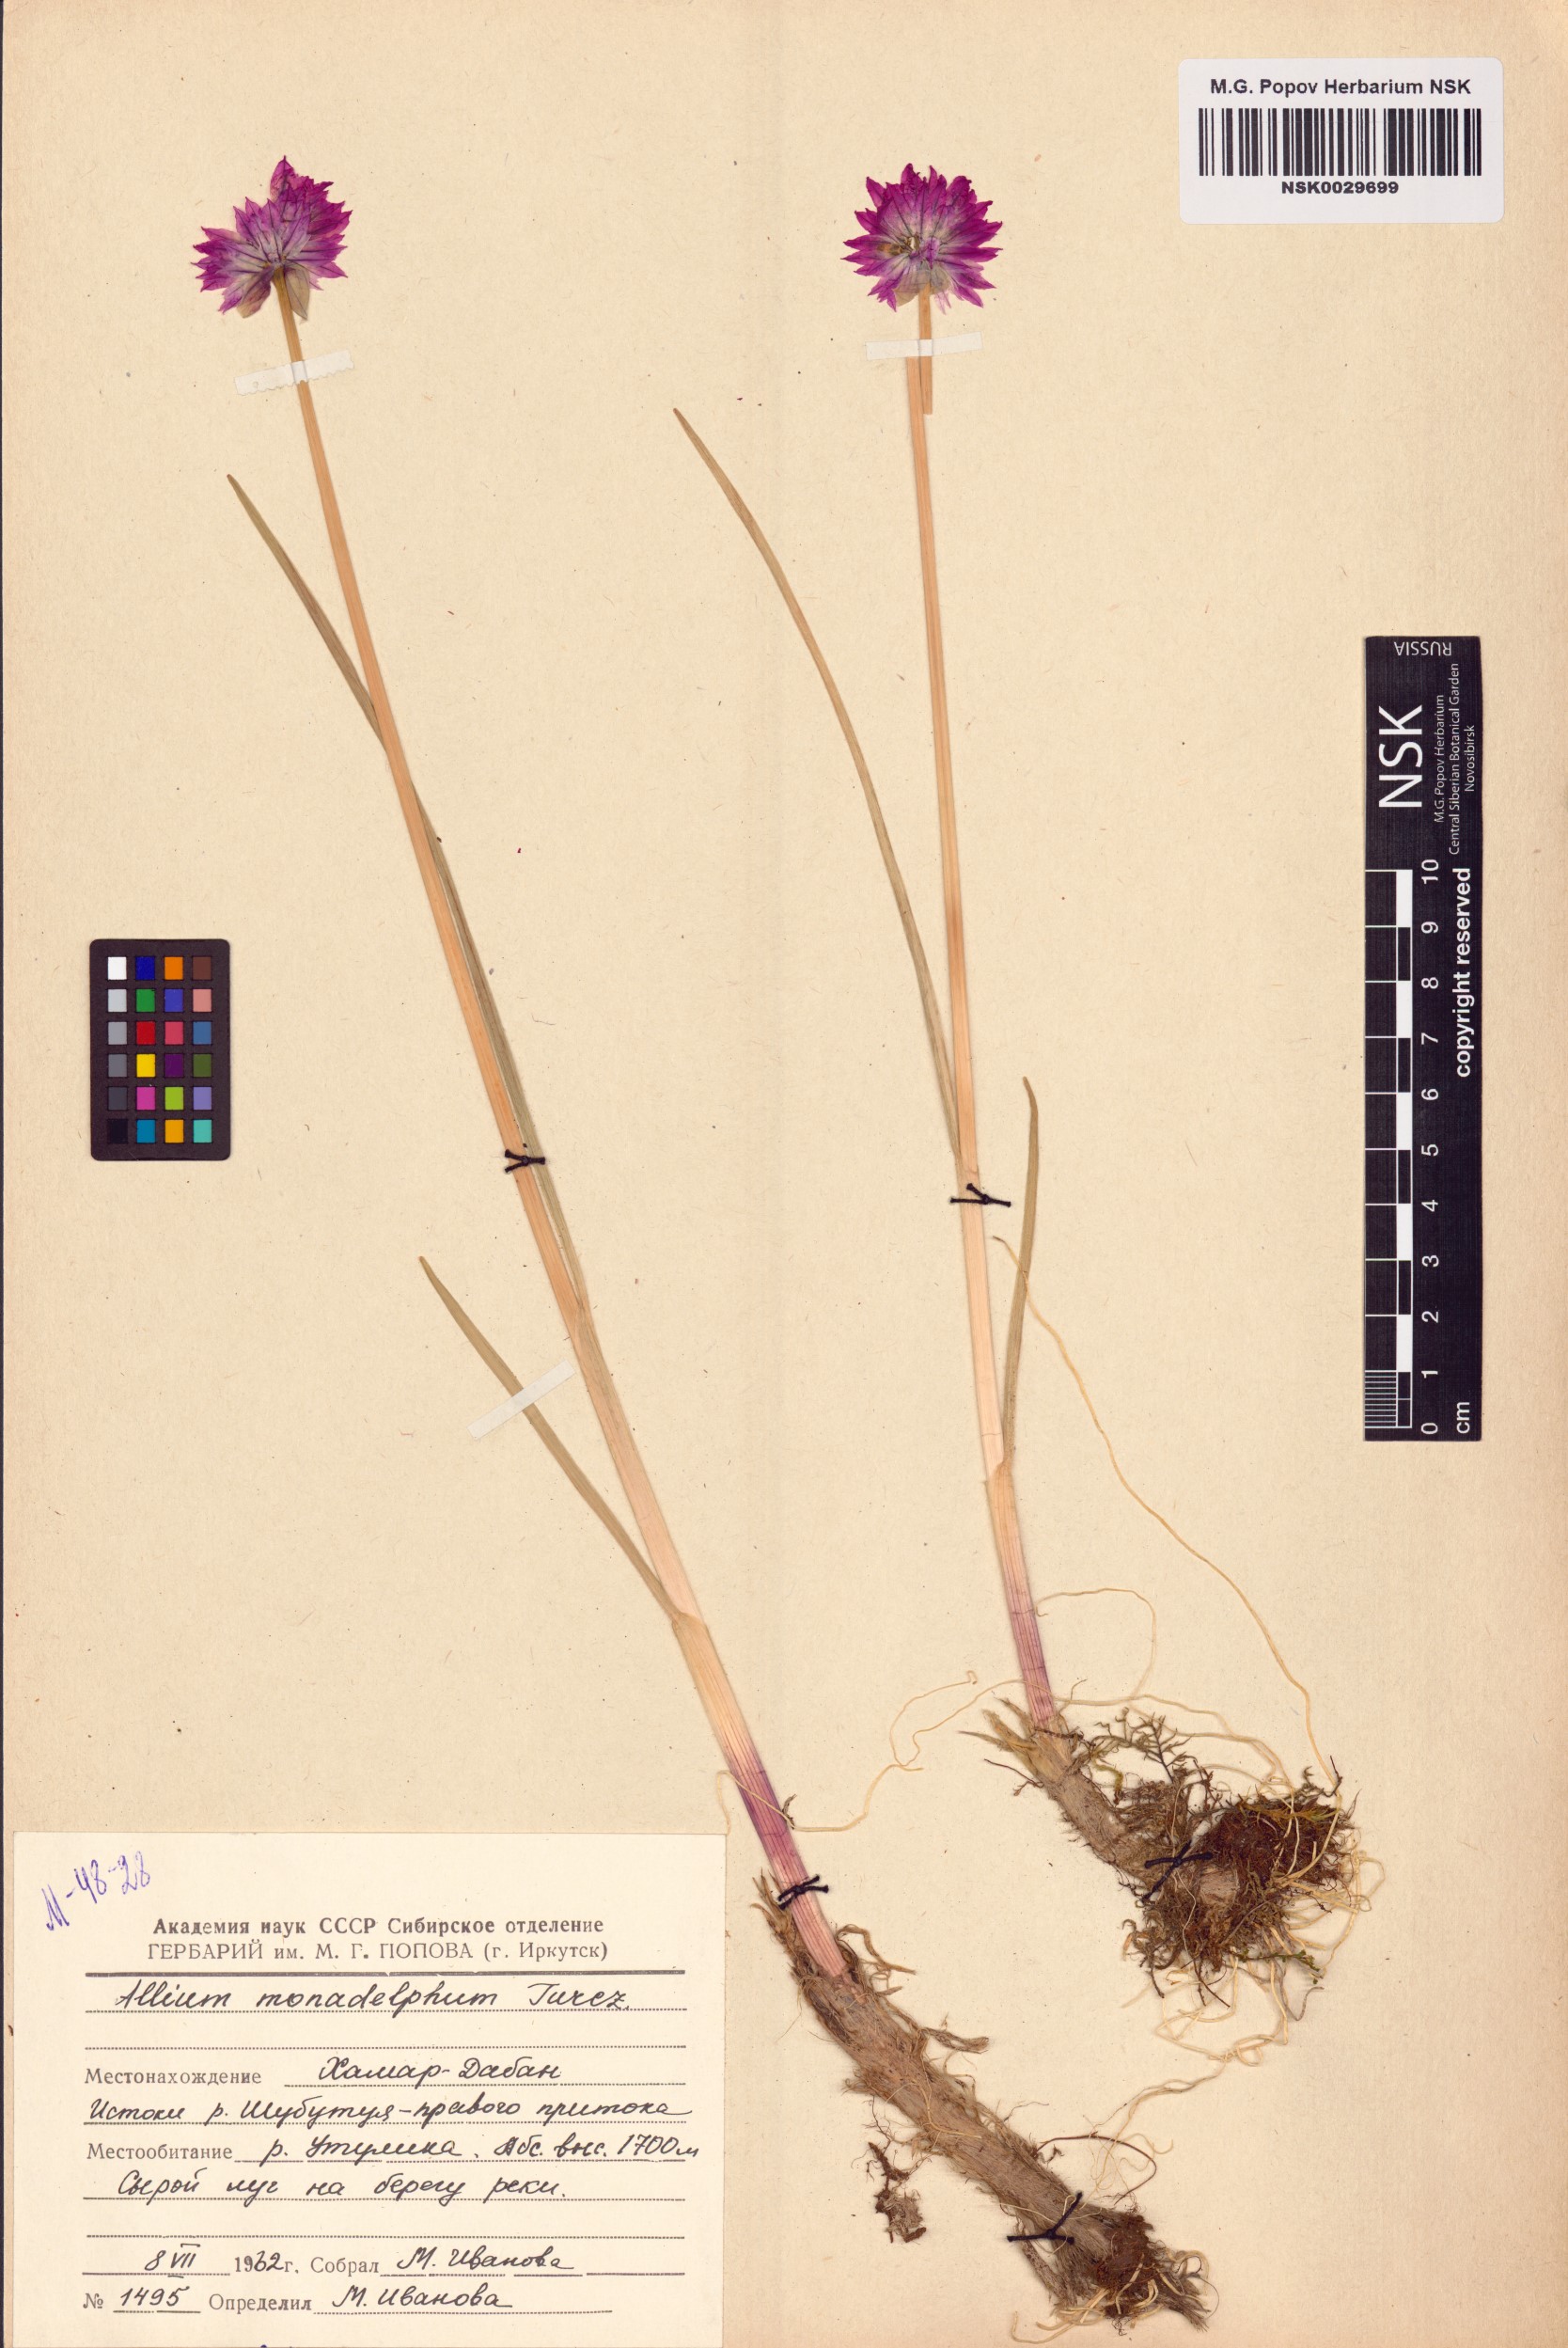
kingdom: Plantae
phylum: Tracheophyta
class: Liliopsida
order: Asparagales
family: Amaryllidaceae
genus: Allium
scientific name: Allium atrosanguineum
